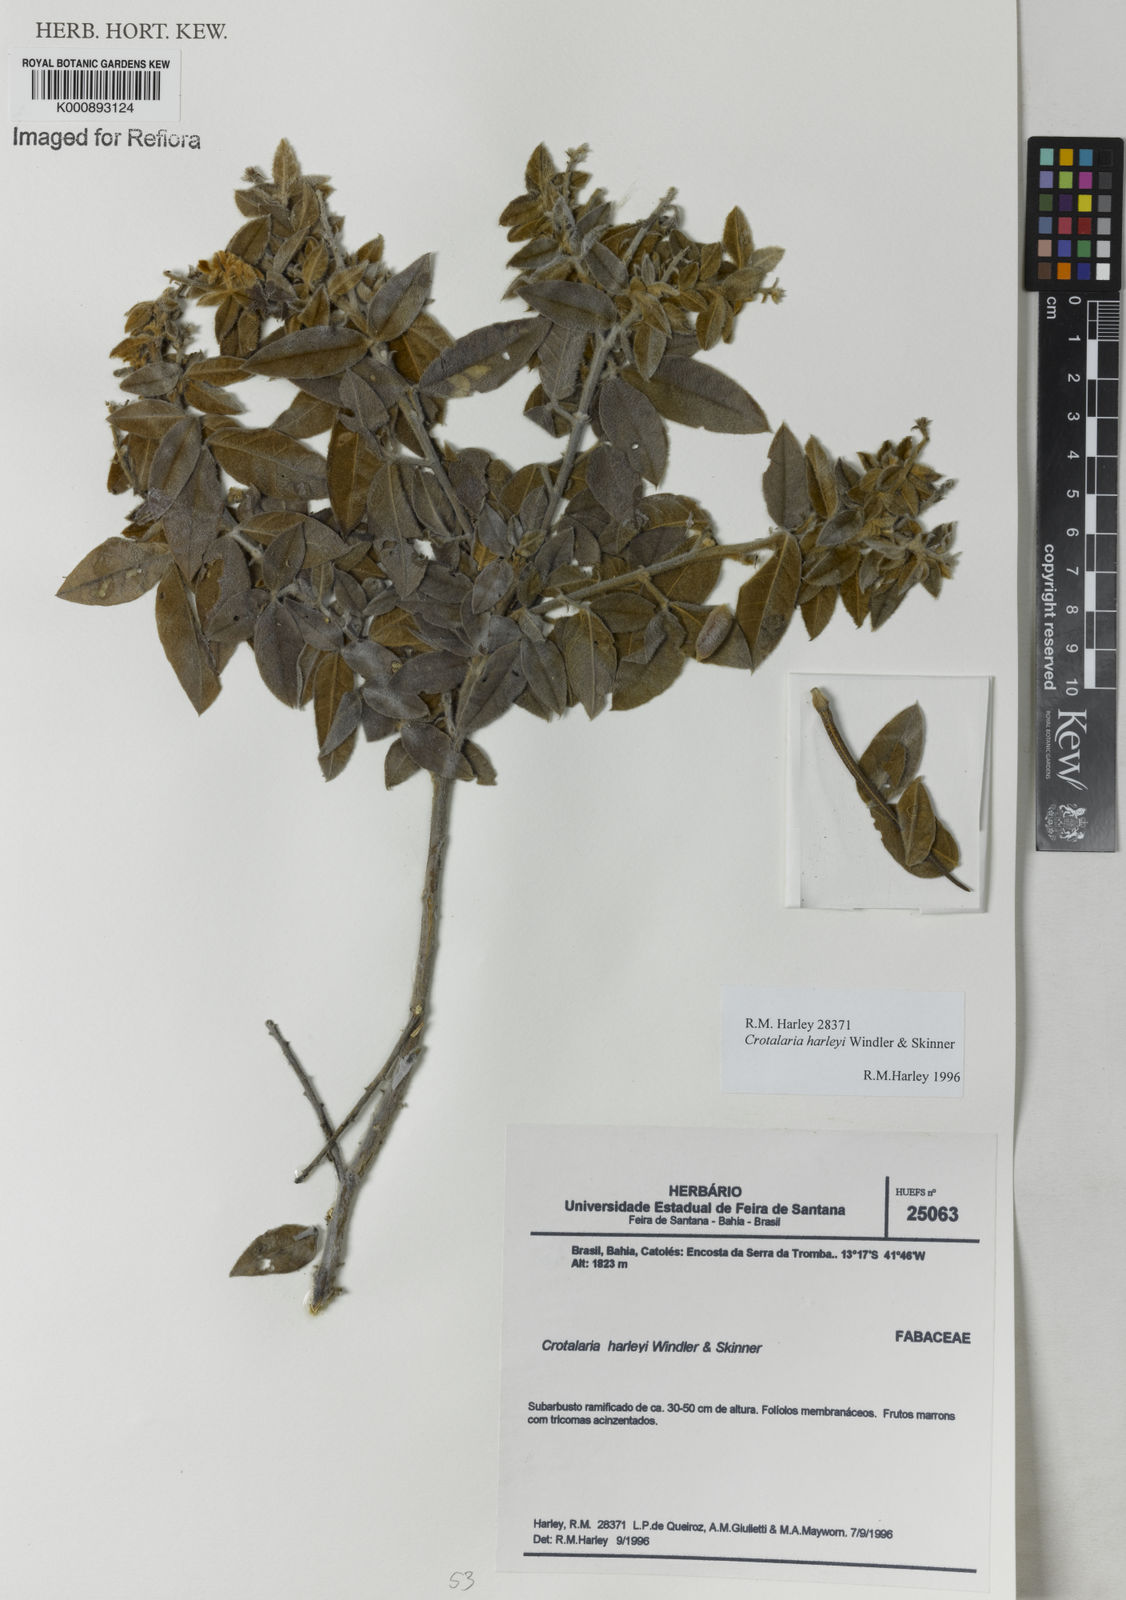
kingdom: Plantae
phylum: Tracheophyta
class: Magnoliopsida
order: Fabales
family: Fabaceae
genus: Crotalaria
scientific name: Crotalaria harleyi
